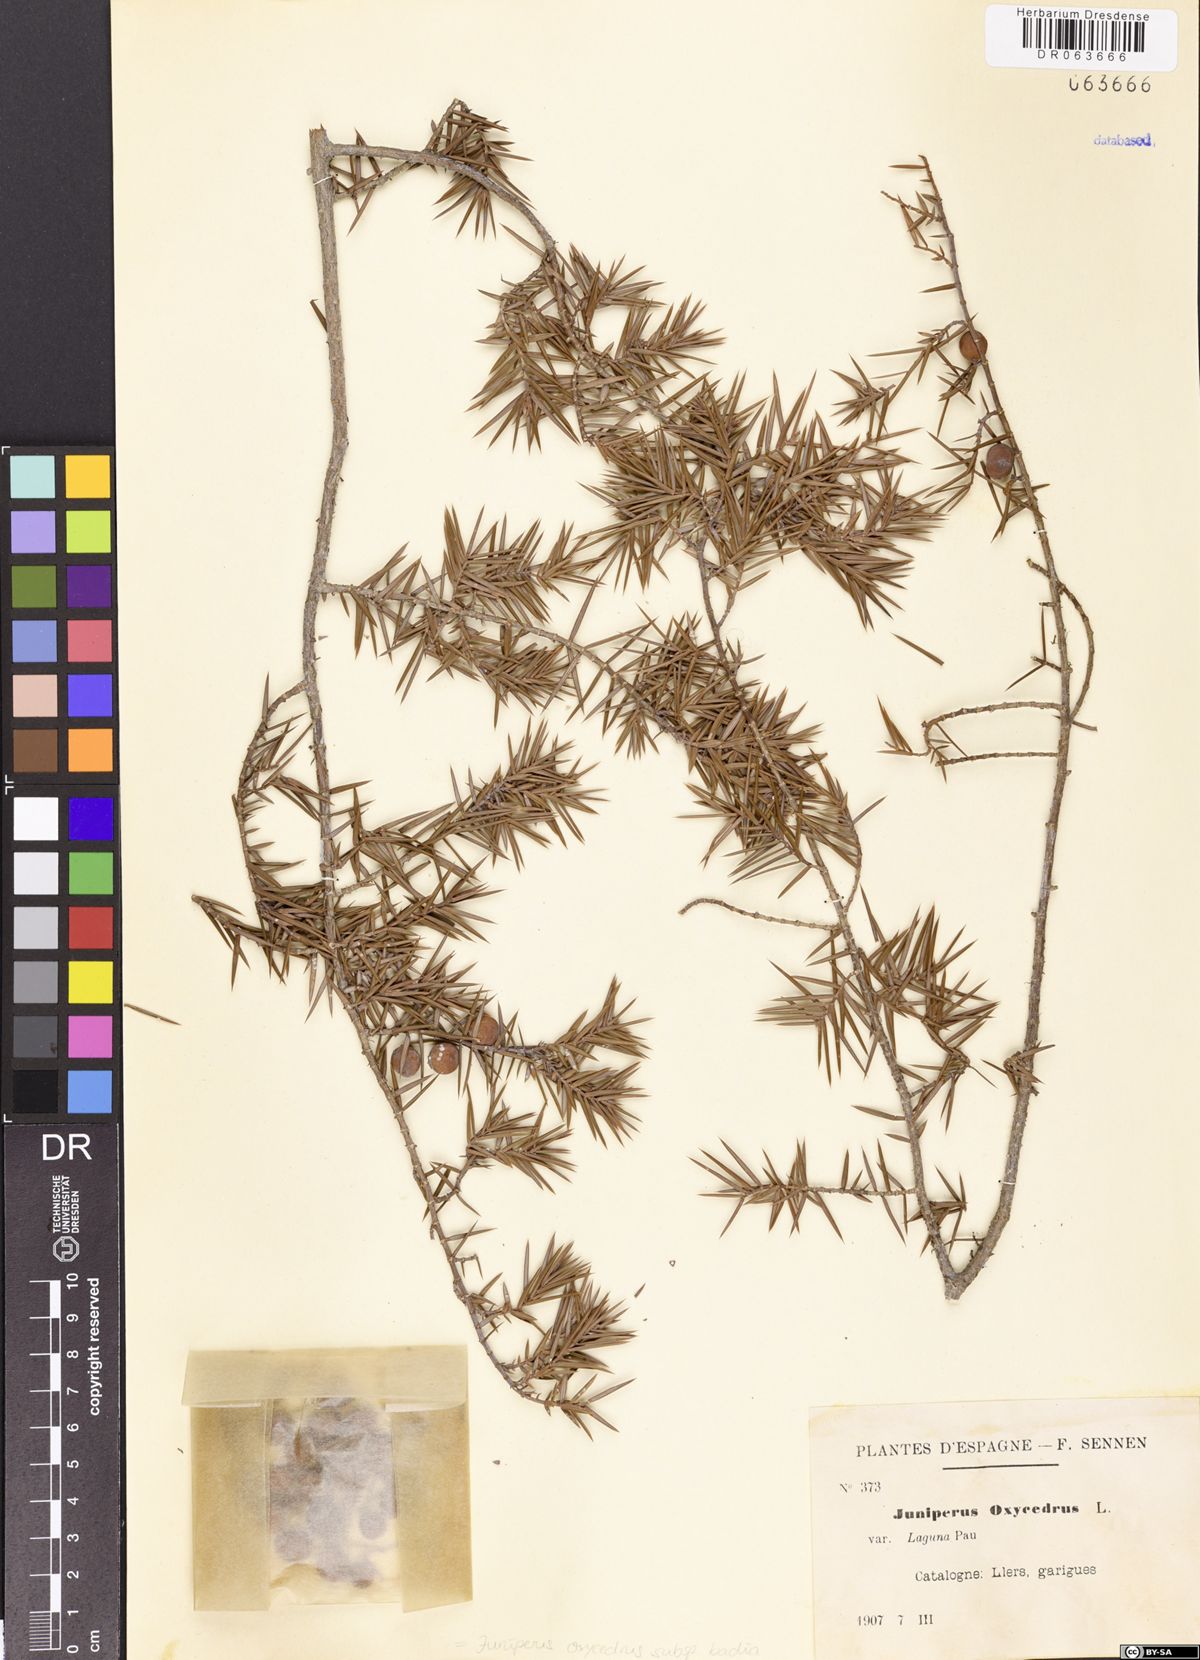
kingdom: Plantae
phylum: Tracheophyta
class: Pinopsida
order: Pinales
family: Cupressaceae
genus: Juniperus
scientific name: Juniperus oxycedrus
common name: Prickly juniper
